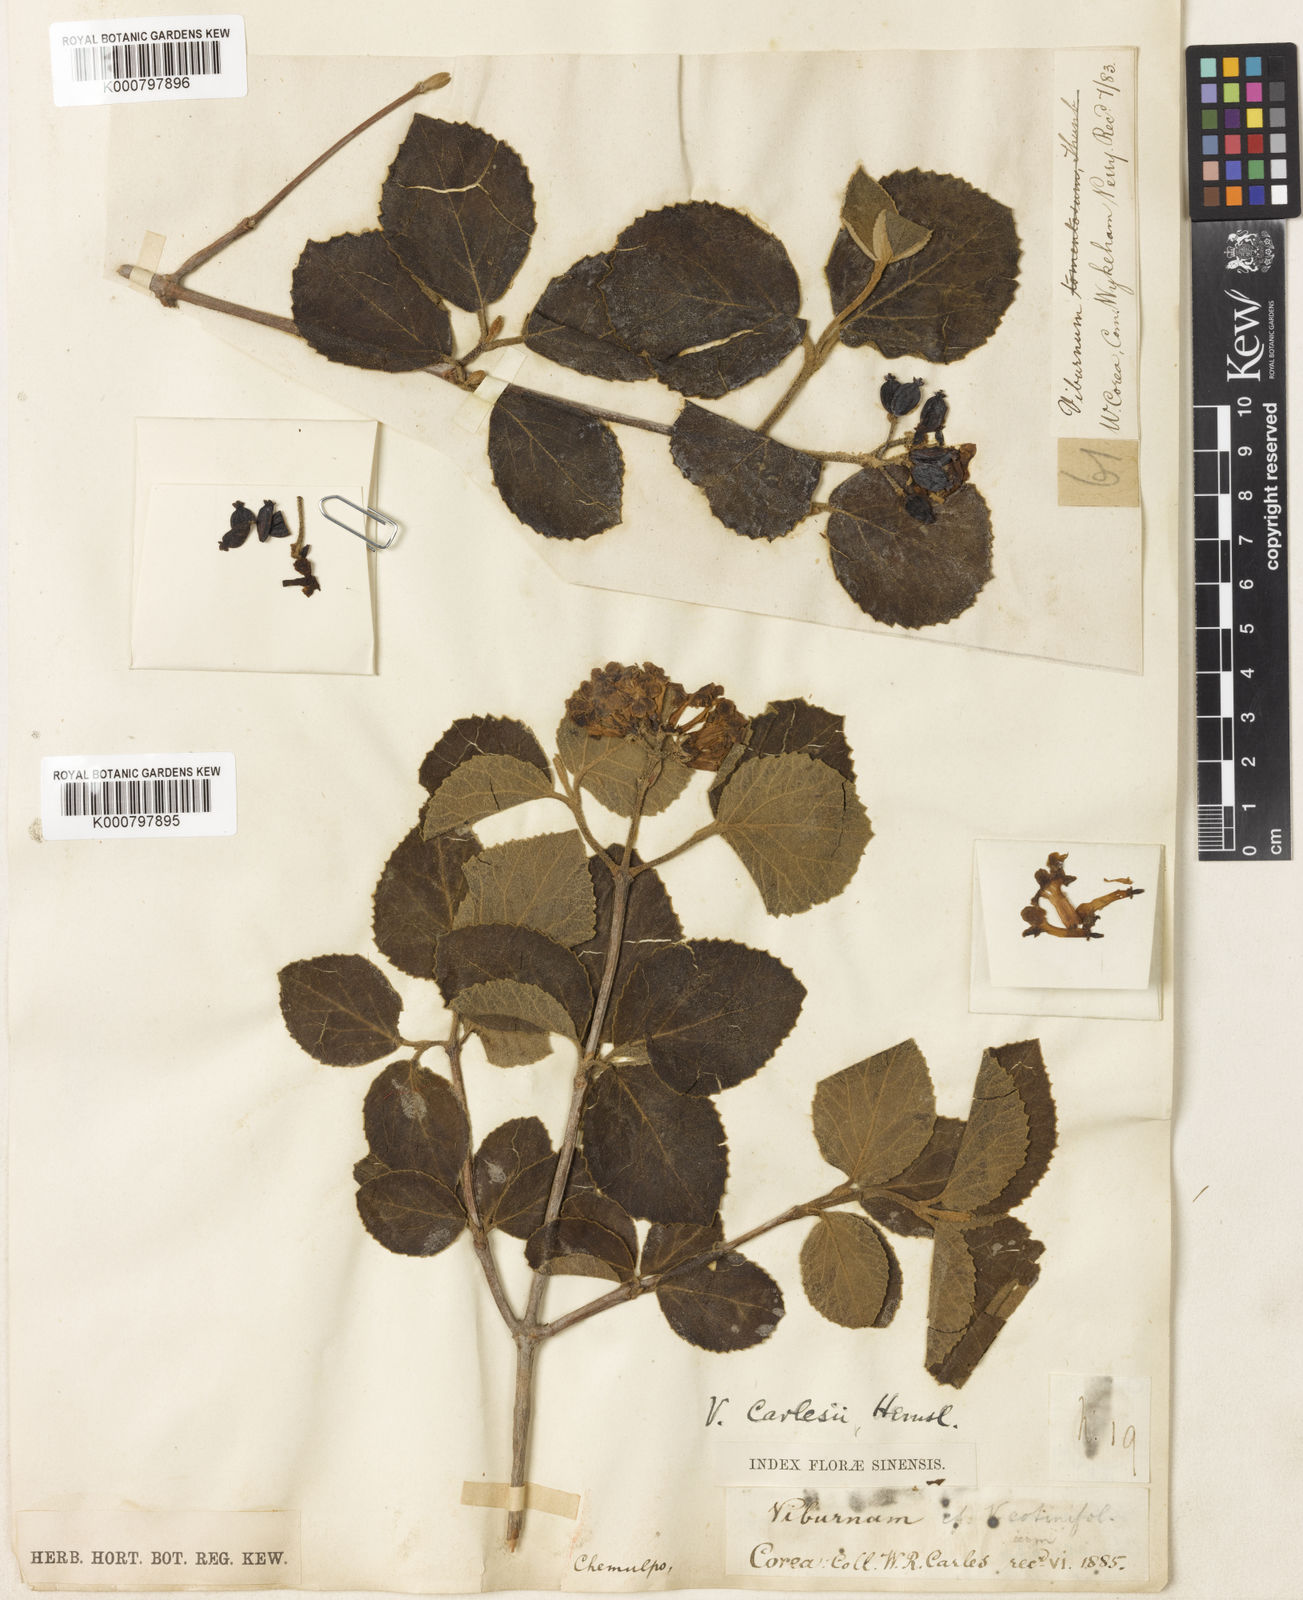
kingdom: Plantae
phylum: Tracheophyta
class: Magnoliopsida
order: Dipsacales
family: Viburnaceae
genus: Viburnum
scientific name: Viburnum carlesii
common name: Koreanspice viburnum
